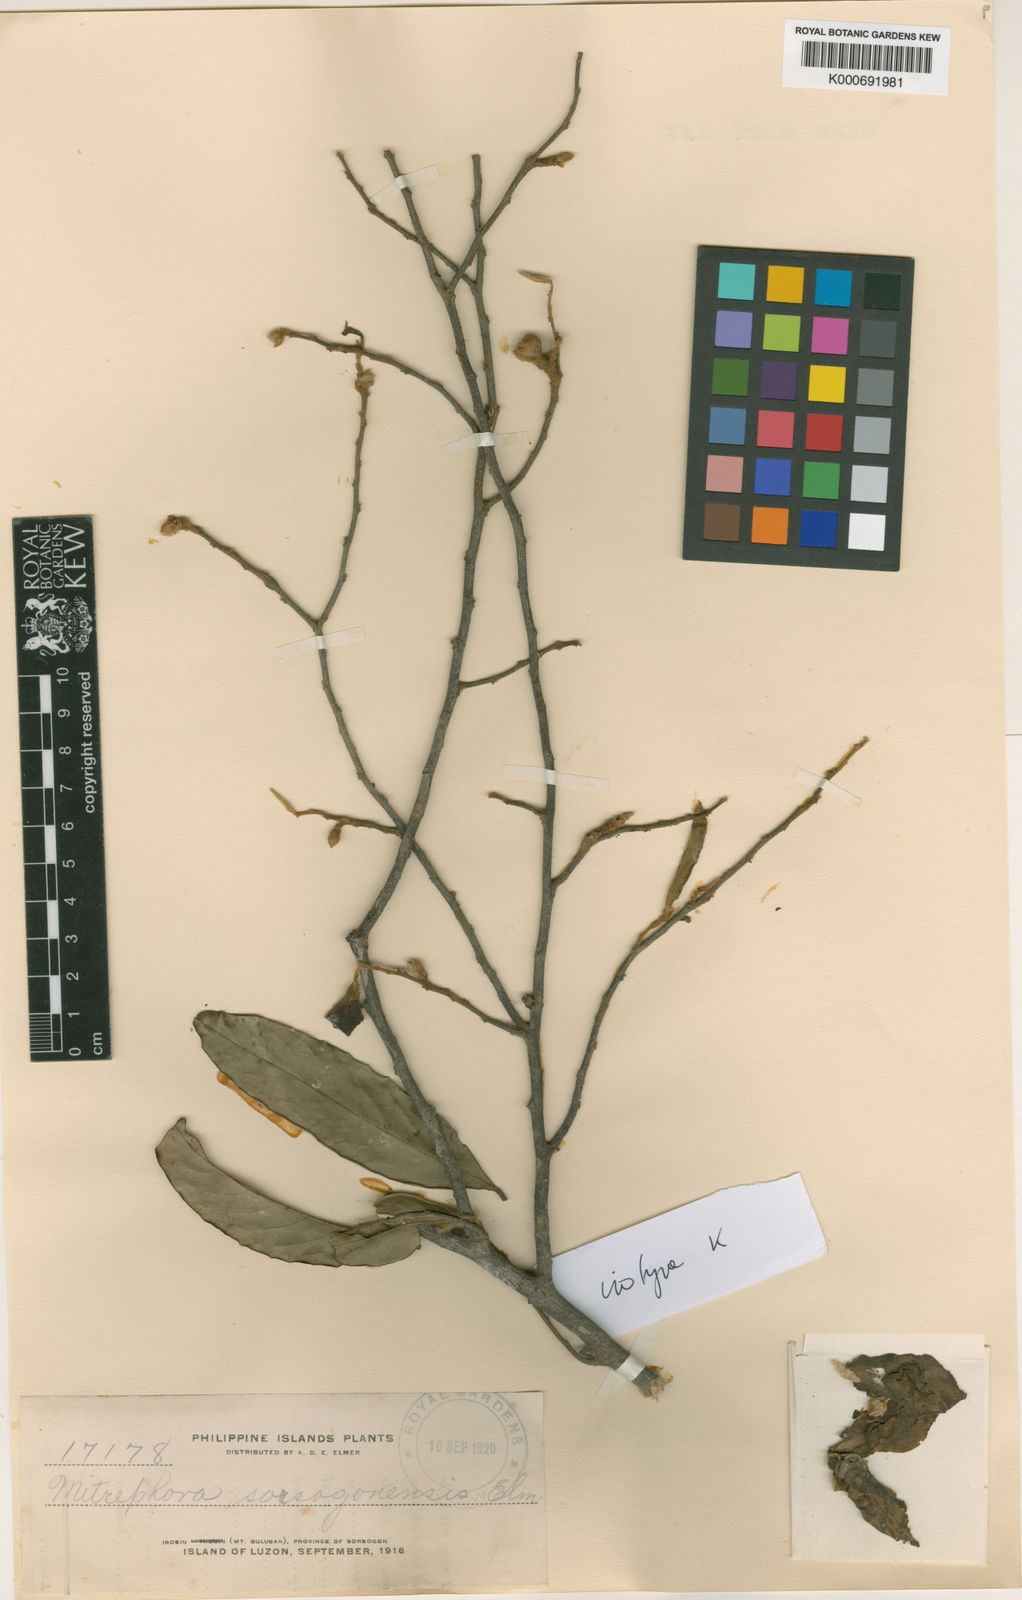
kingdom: Plantae
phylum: Tracheophyta
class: Magnoliopsida
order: Magnoliales
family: Annonaceae
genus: Mitrephora
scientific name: Mitrephora
